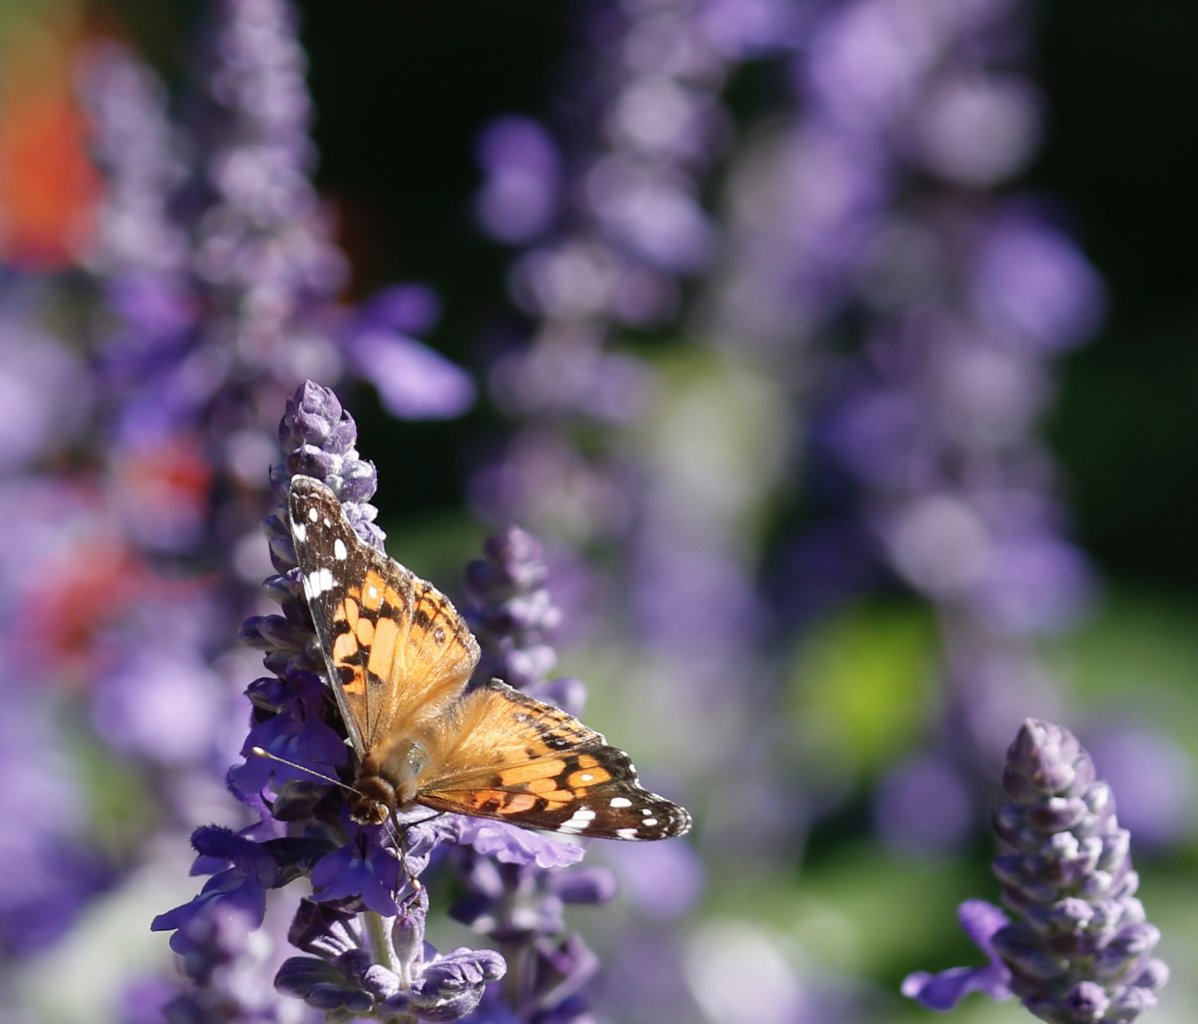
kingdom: Animalia
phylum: Arthropoda
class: Insecta
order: Lepidoptera
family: Nymphalidae
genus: Vanessa
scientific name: Vanessa virginiensis
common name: American Lady
